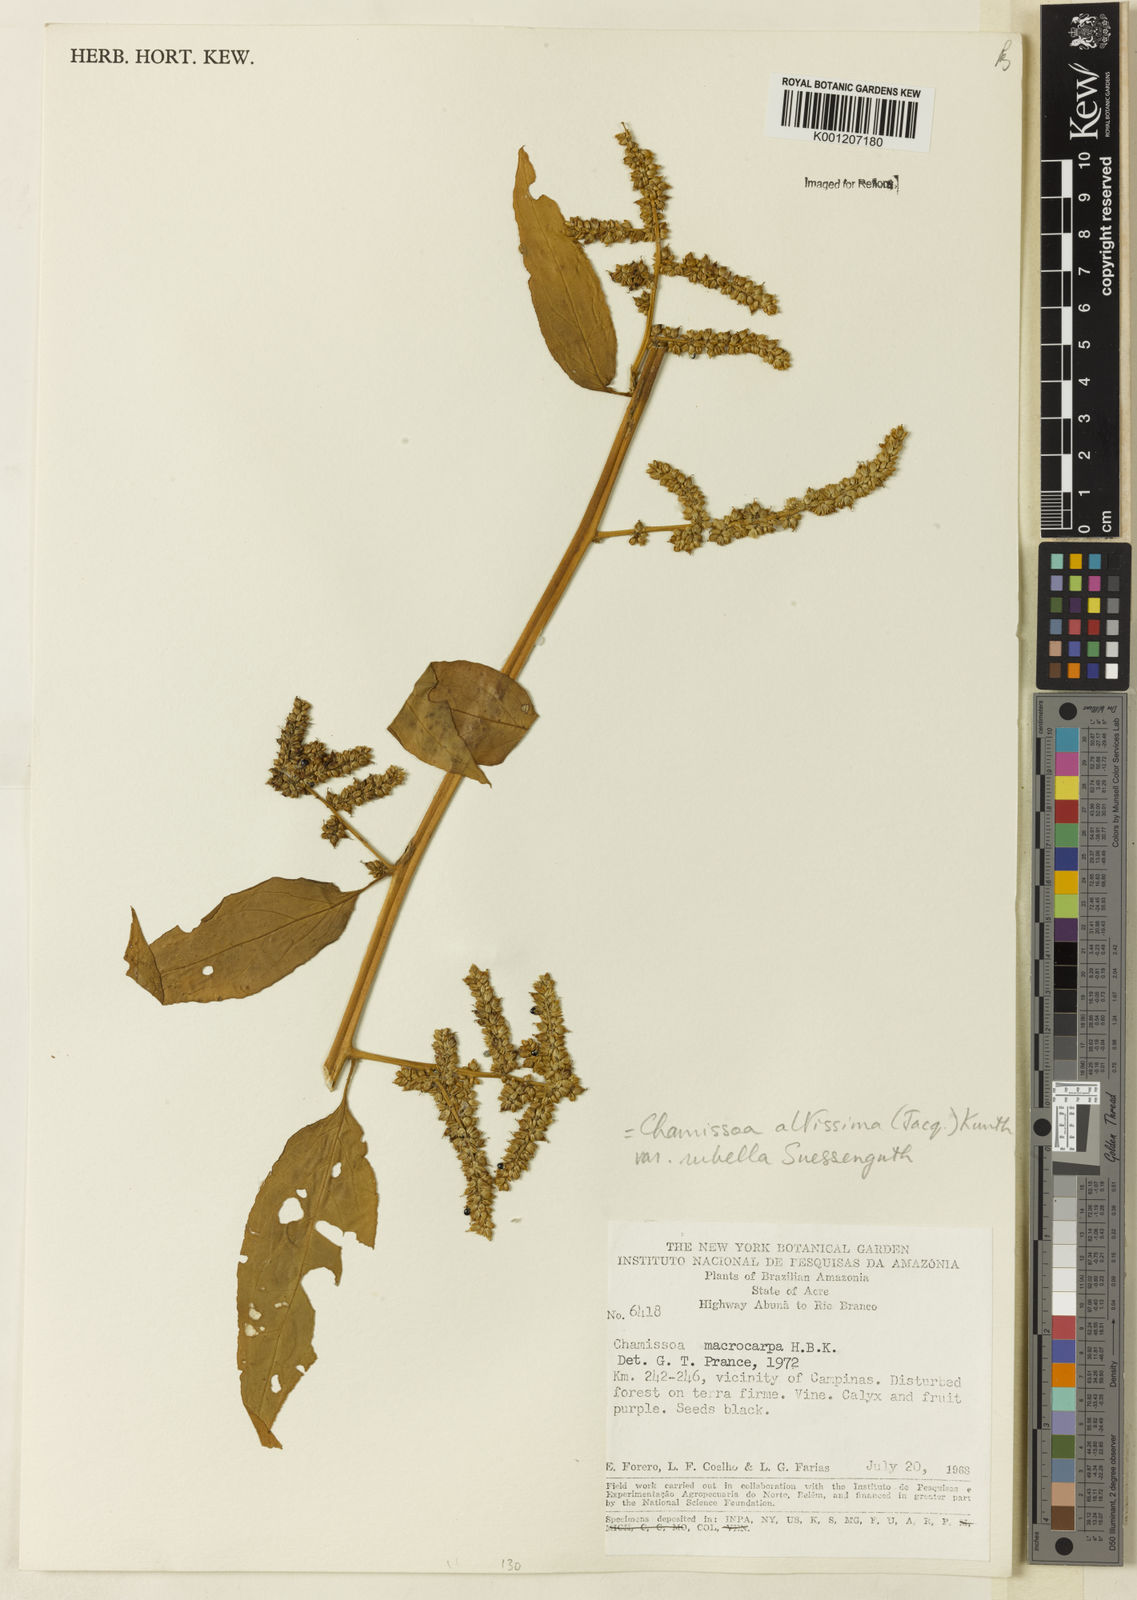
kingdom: Plantae
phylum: Tracheophyta
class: Magnoliopsida
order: Caryophyllales
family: Amaranthaceae
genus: Chamissoa
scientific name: Chamissoa altissima
